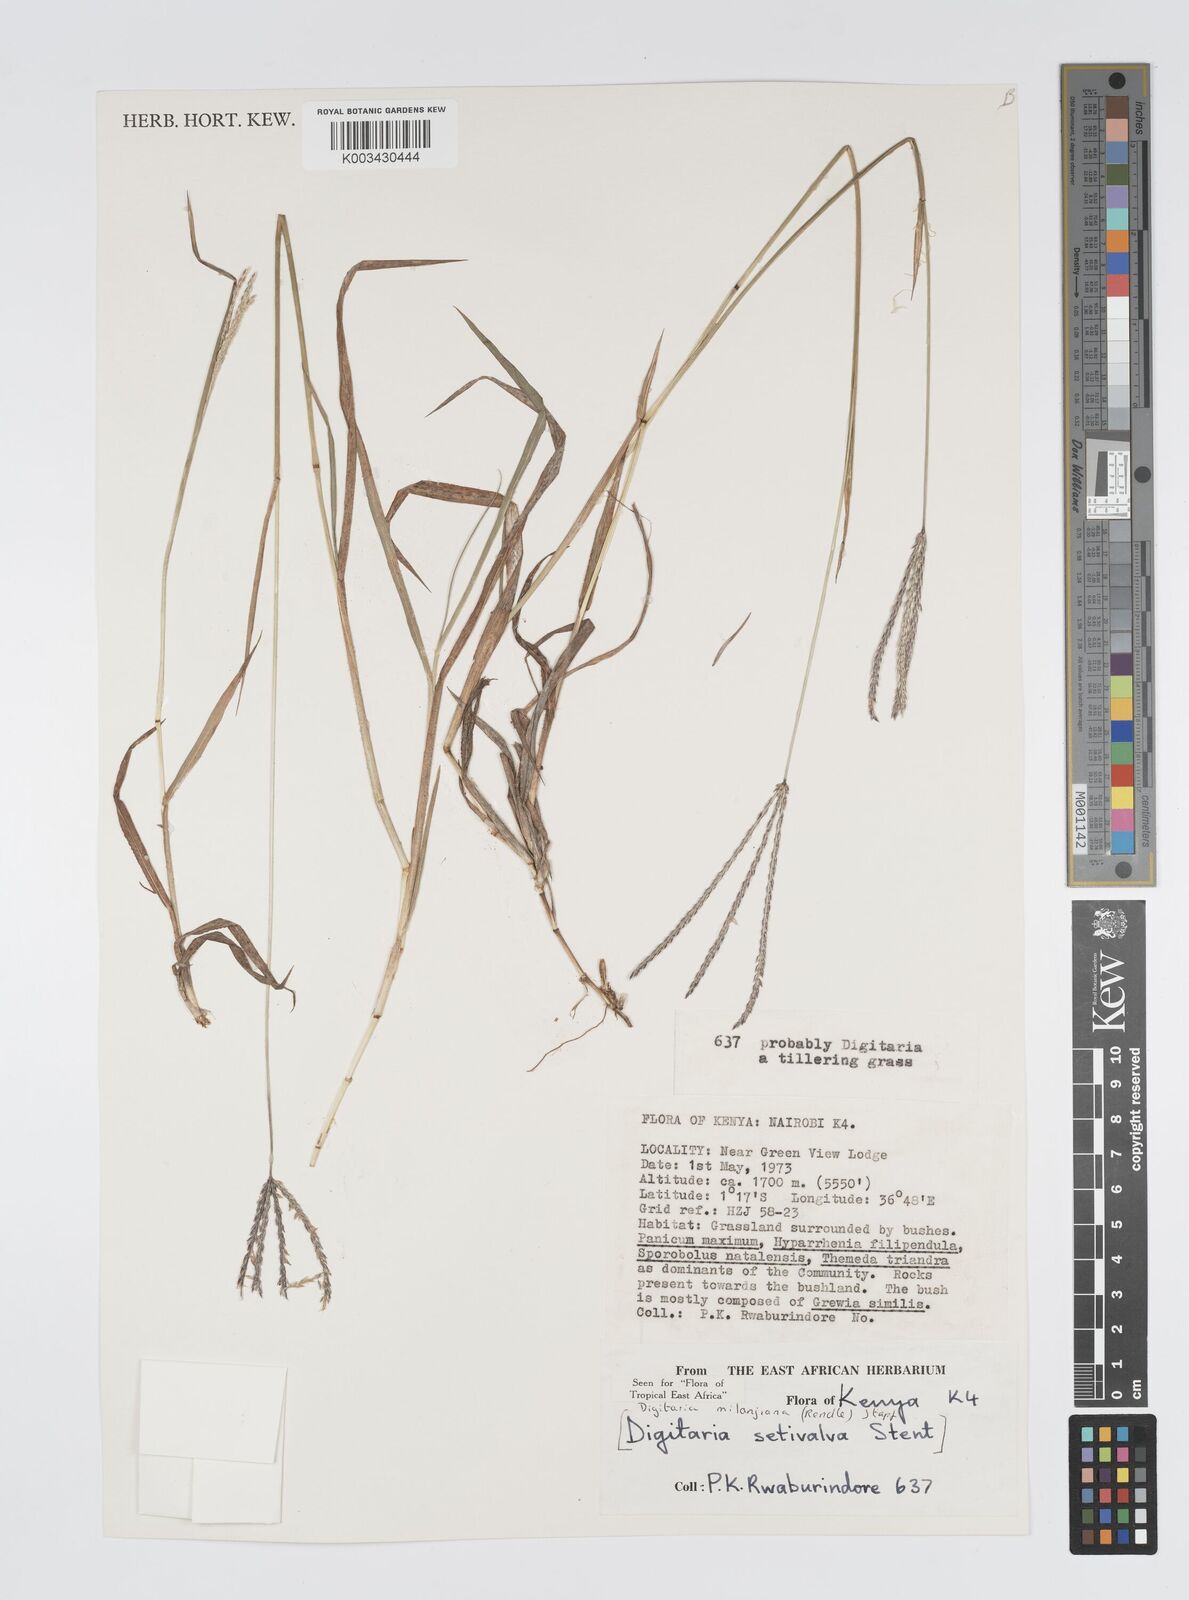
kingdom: Plantae
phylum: Tracheophyta
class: Liliopsida
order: Poales
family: Poaceae
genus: Digitaria
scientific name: Digitaria milanjiana
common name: Madagascar crabgrass
